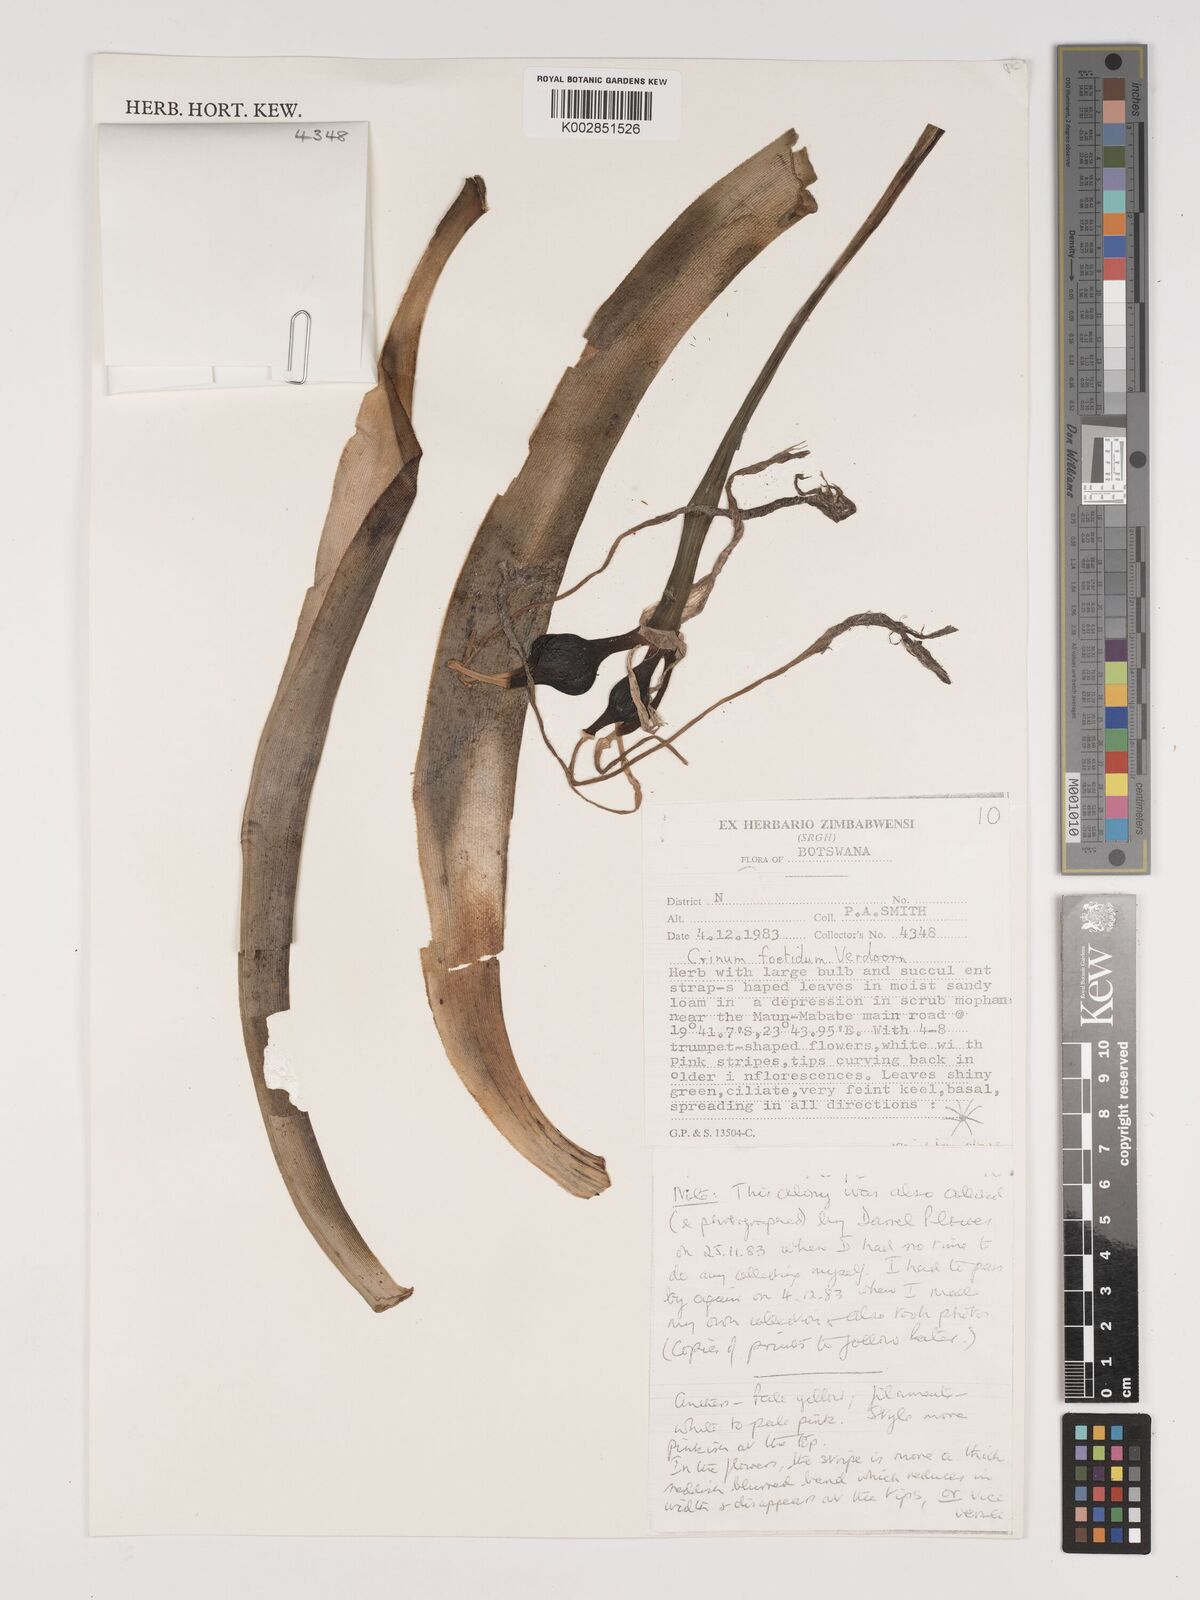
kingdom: Plantae
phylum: Tracheophyta
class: Liliopsida
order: Asparagales
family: Amaryllidaceae
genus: Crinum
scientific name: Crinum crassicaule
